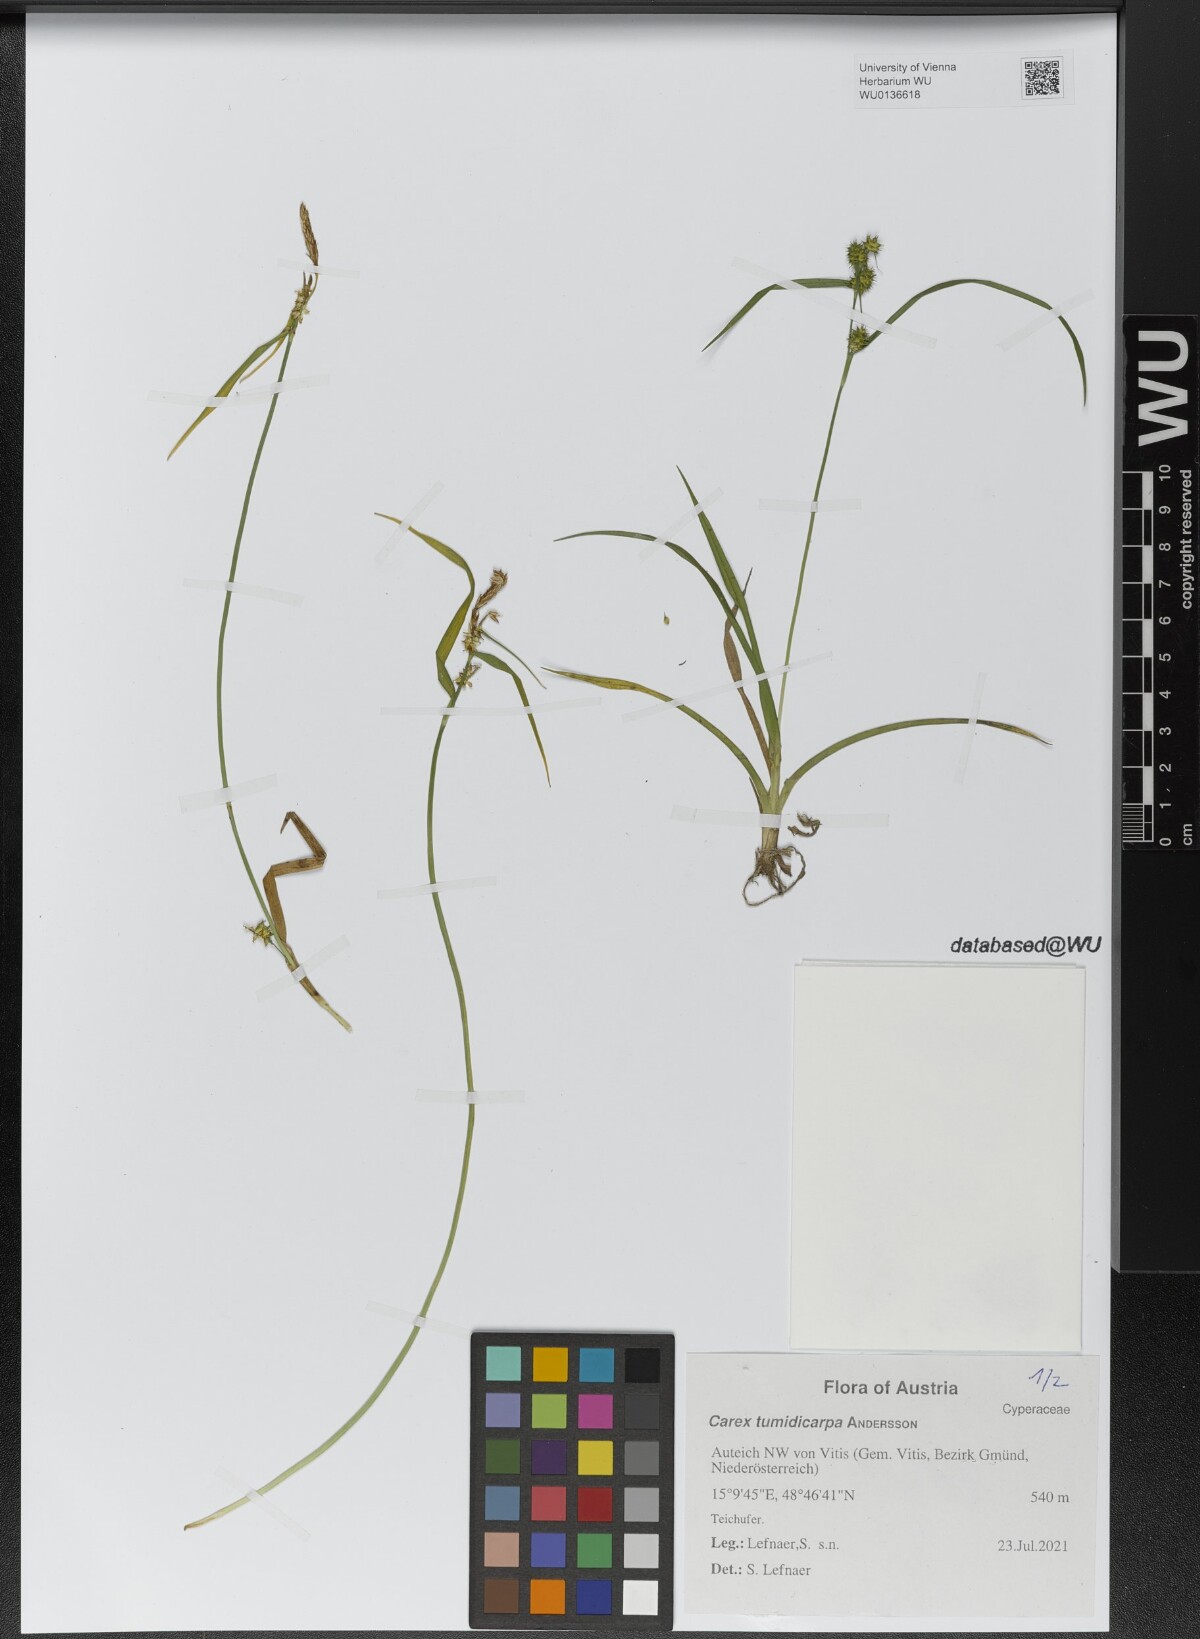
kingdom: Plantae
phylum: Tracheophyta
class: Liliopsida
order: Poales
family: Cyperaceae
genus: Carex
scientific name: Carex demissa
